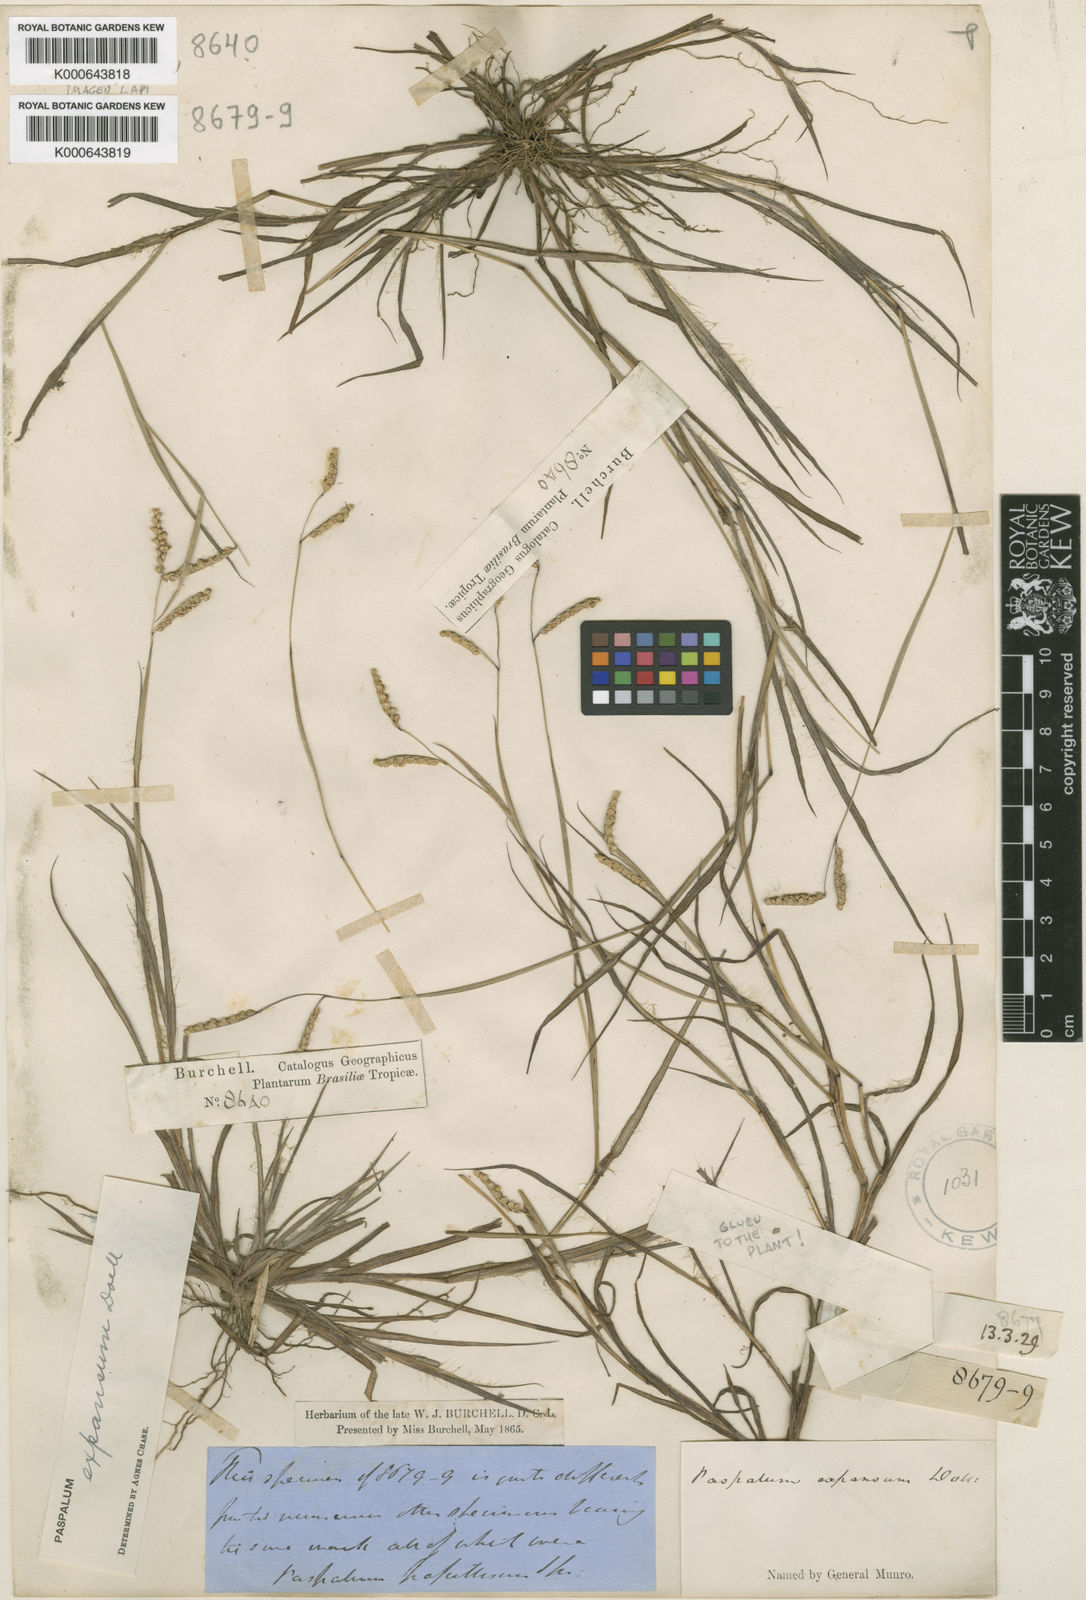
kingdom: Plantae
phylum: Tracheophyta
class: Liliopsida
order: Poales
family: Poaceae
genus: Paspalum
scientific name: Paspalum
